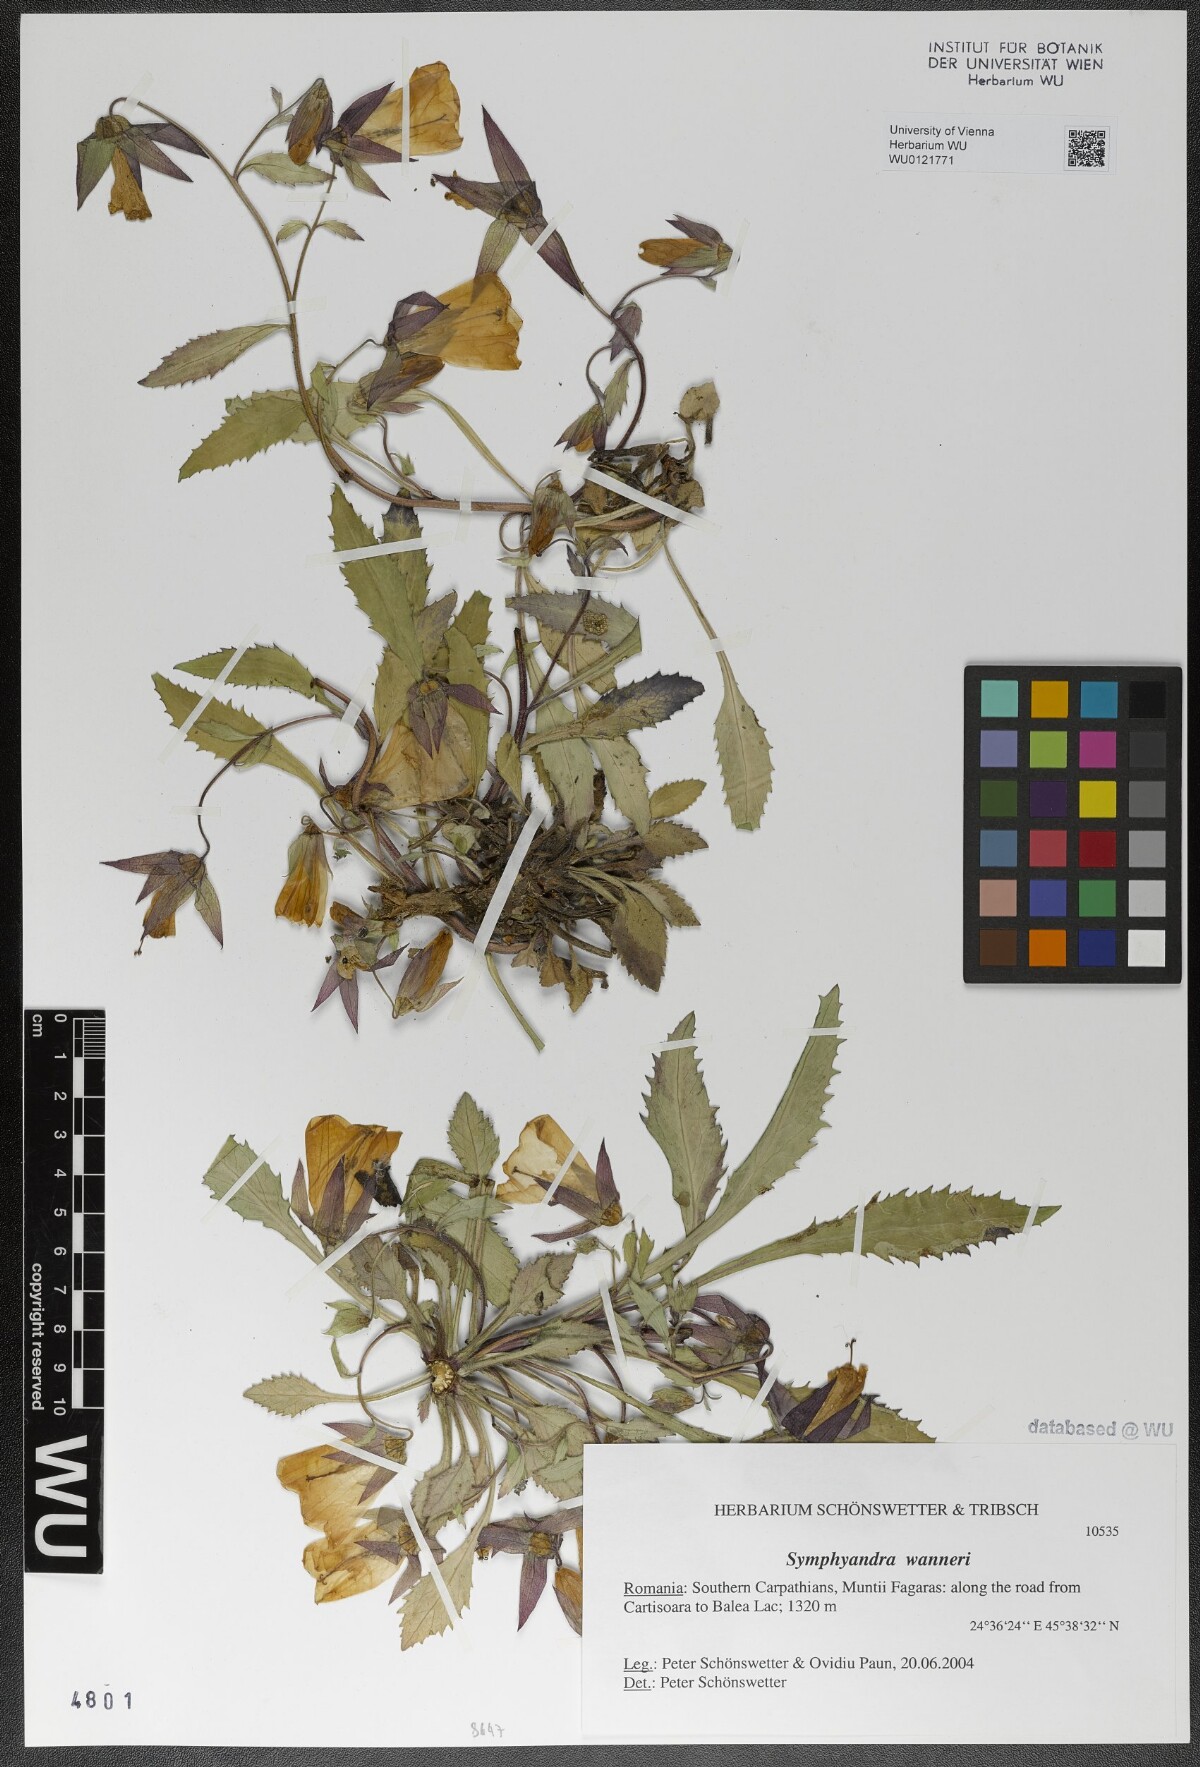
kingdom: Plantae
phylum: Tracheophyta
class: Magnoliopsida
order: Asterales
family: Campanulaceae
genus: Campanula
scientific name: Campanula wanneri
